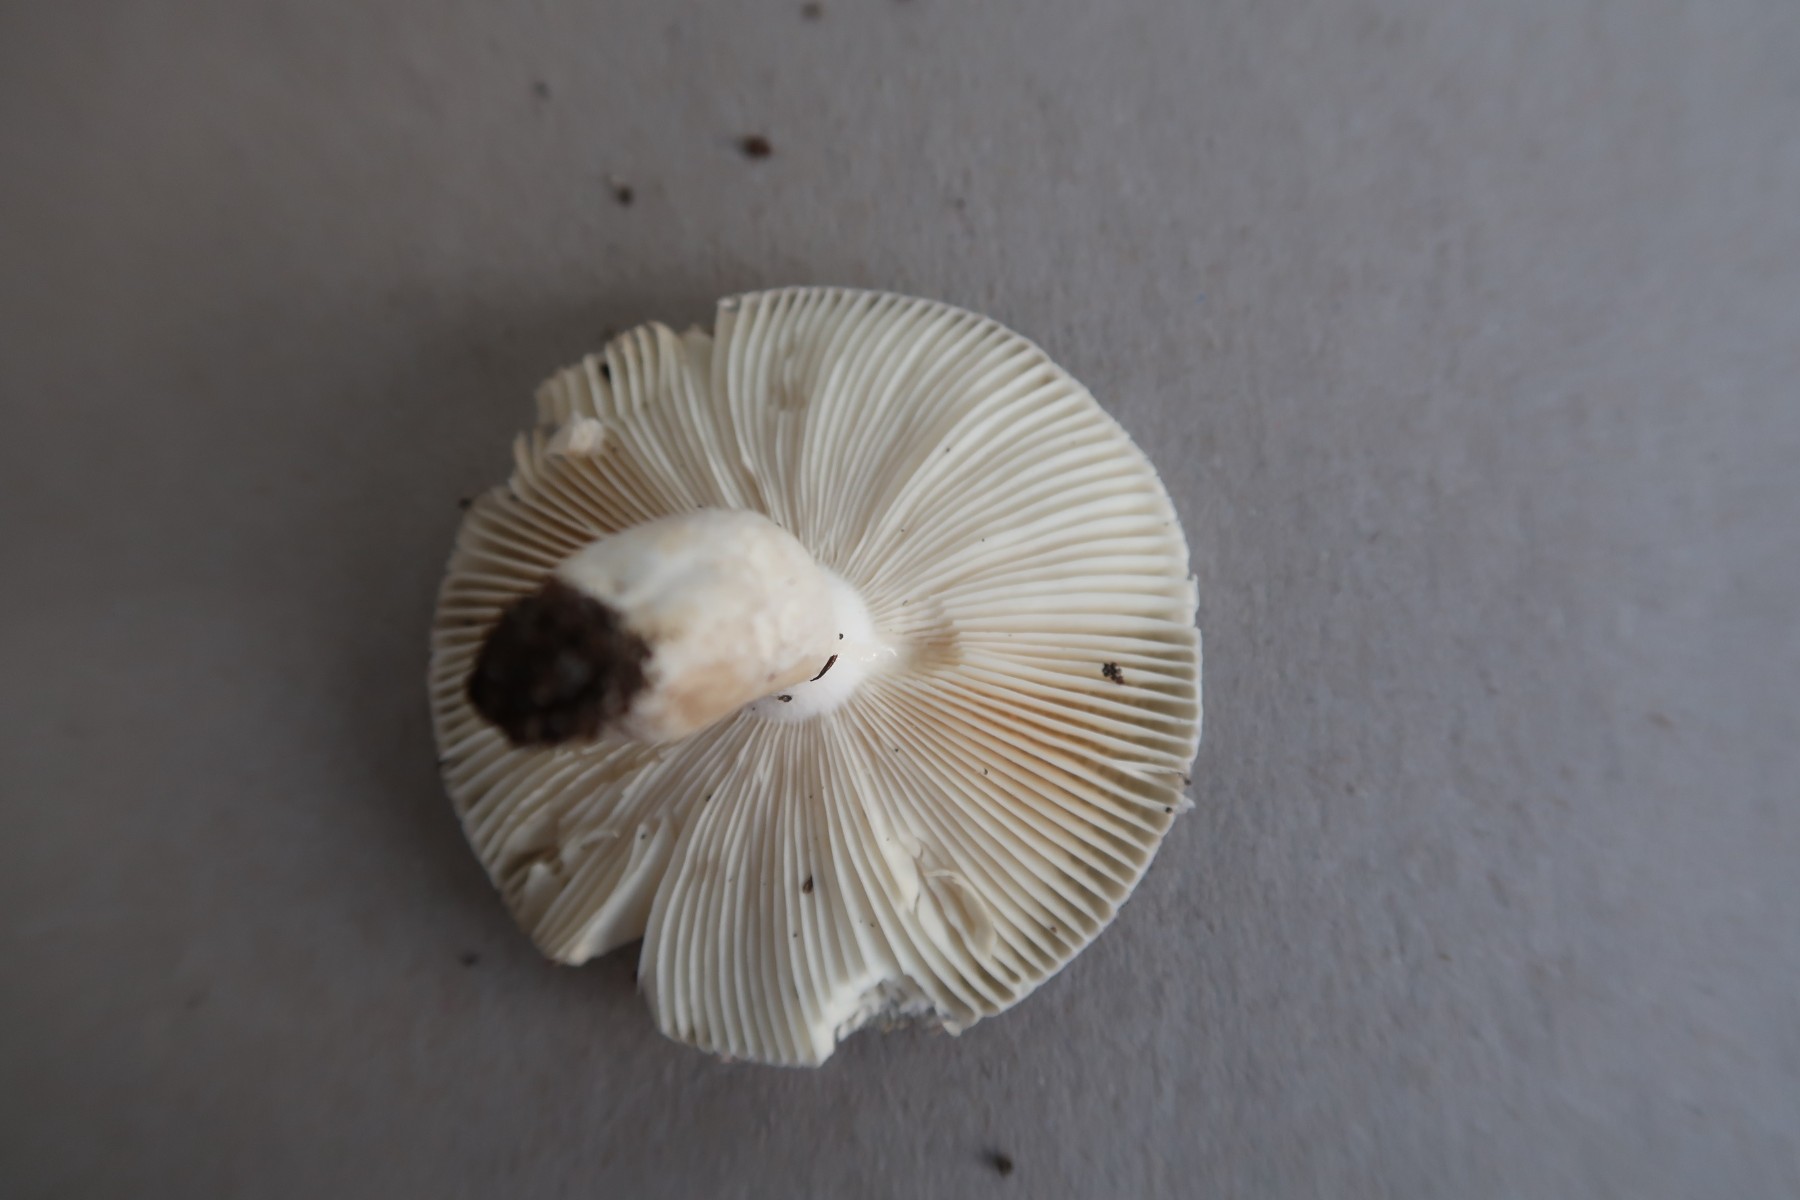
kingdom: Fungi
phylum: Basidiomycota
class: Agaricomycetes
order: Russulales
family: Russulaceae
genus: Russula
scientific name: Russula
